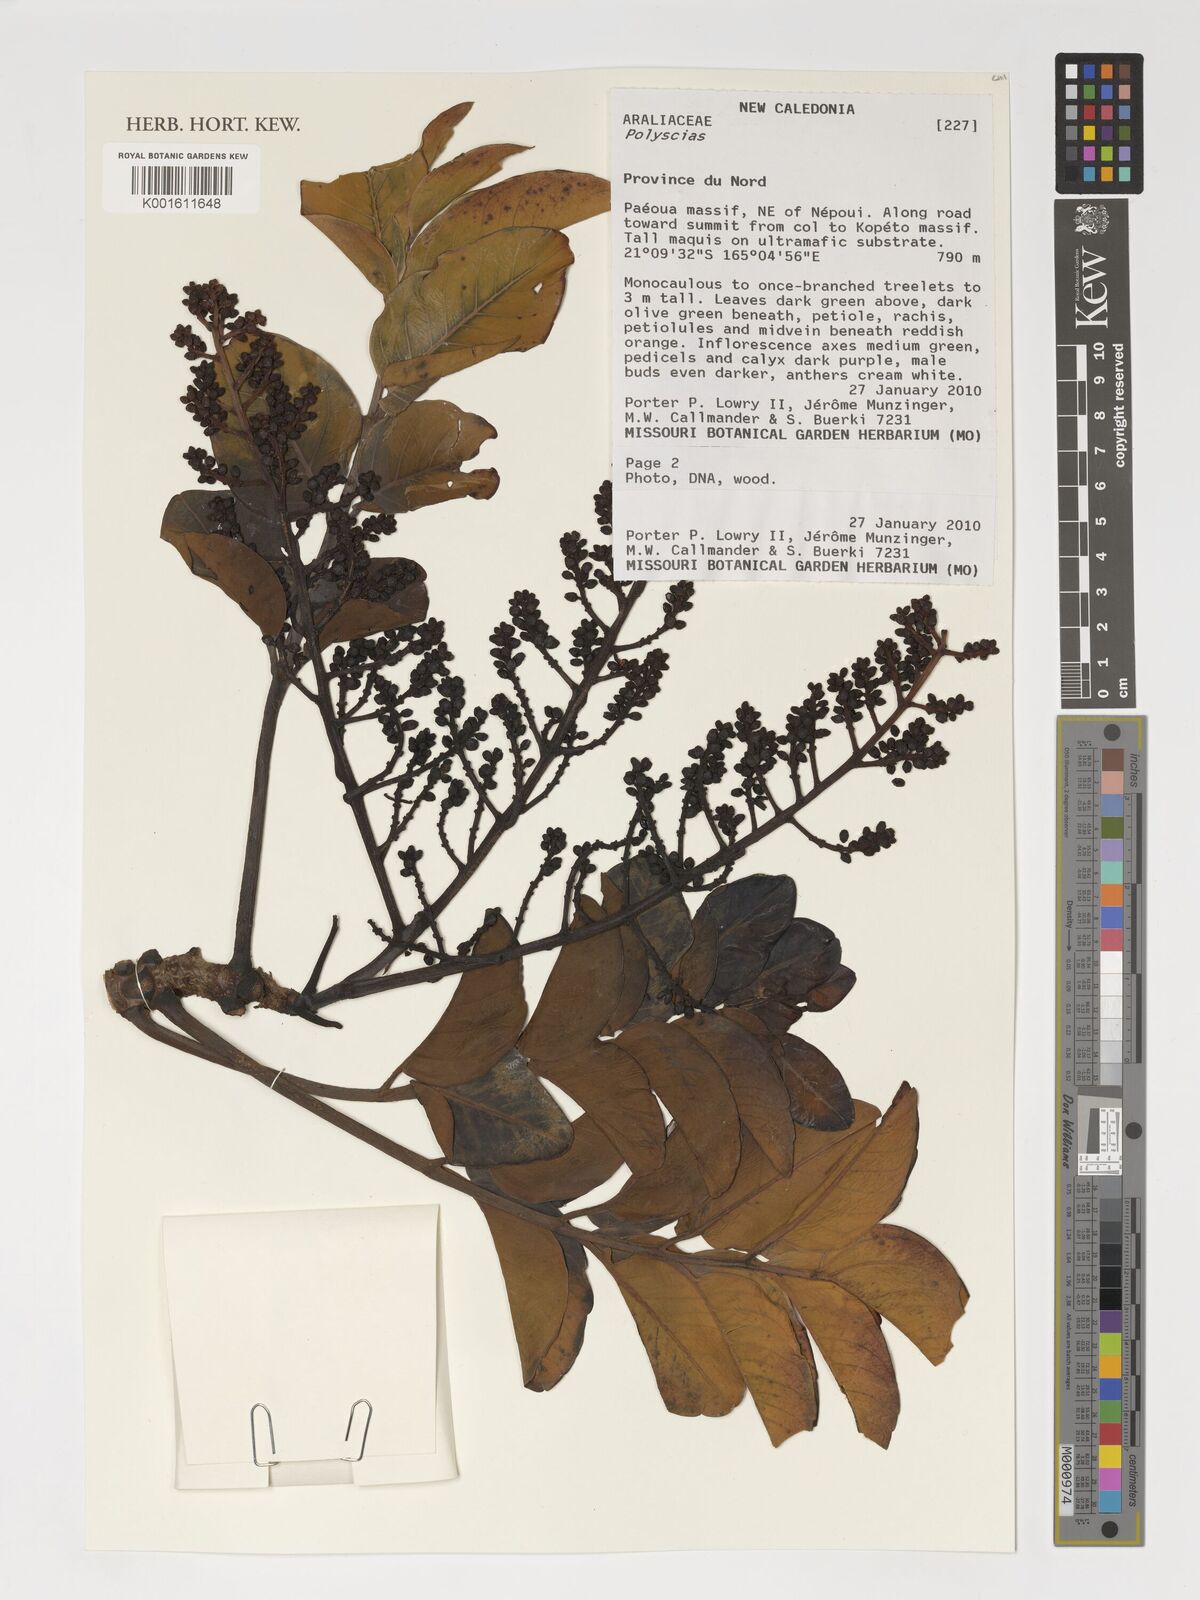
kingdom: Plantae
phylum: Tracheophyta
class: Magnoliopsida
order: Apiales
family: Araliaceae
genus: Polyscias
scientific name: Polyscias
